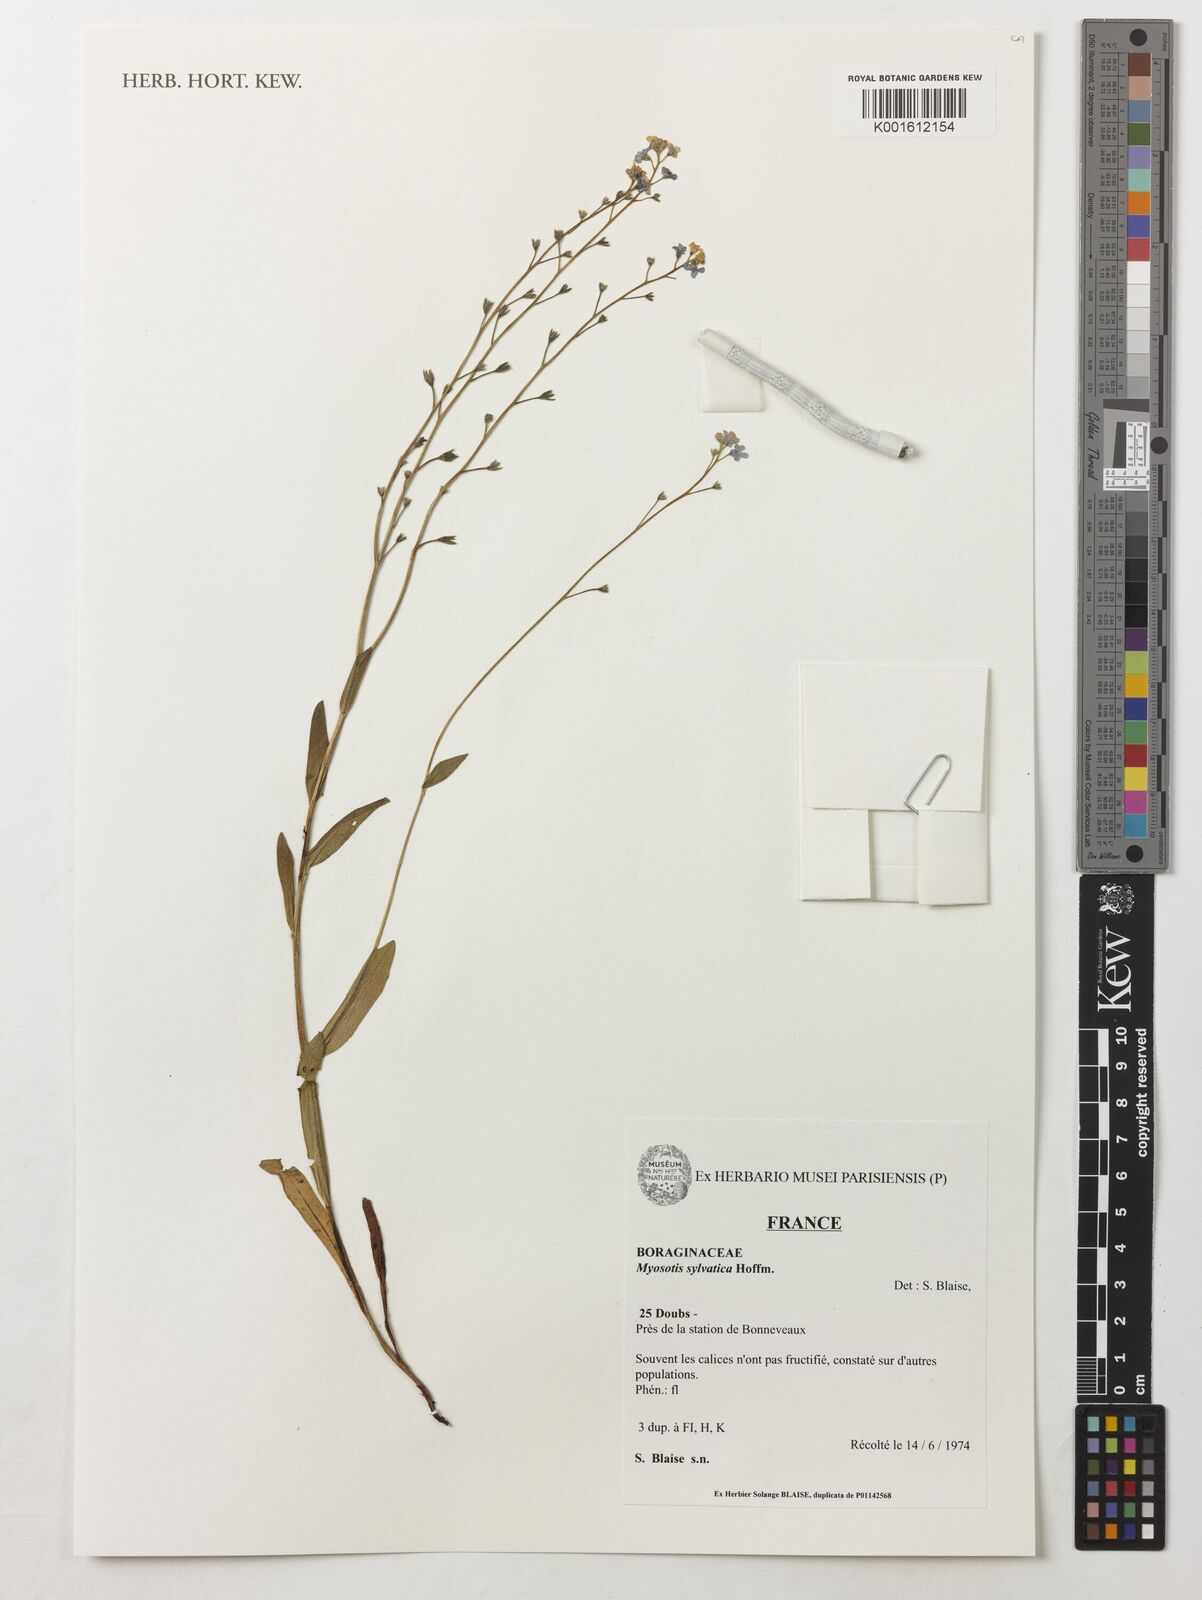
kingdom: Plantae
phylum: Tracheophyta
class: Magnoliopsida
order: Boraginales
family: Boraginaceae
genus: Myosotis
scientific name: Myosotis sylvatica
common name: Wood forget-me-not
